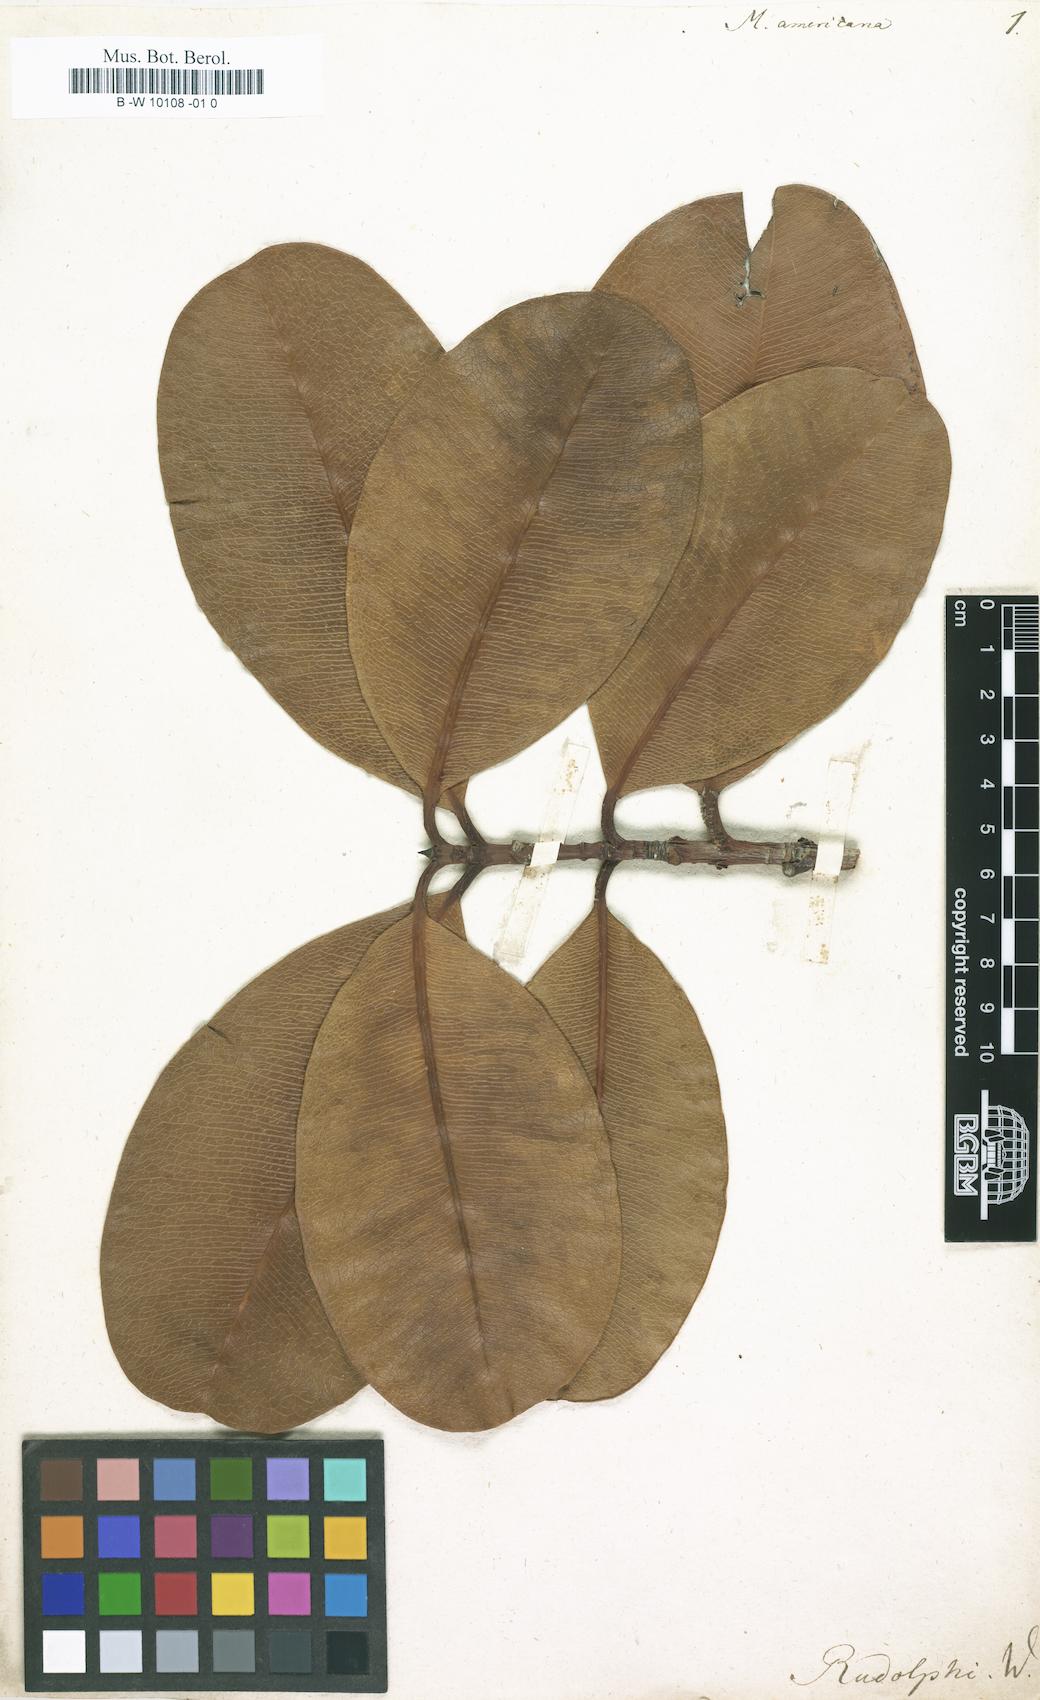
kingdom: Plantae
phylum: Tracheophyta
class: Magnoliopsida
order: Malpighiales
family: Calophyllaceae
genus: Mammea
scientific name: Mammea americana
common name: Mamey
